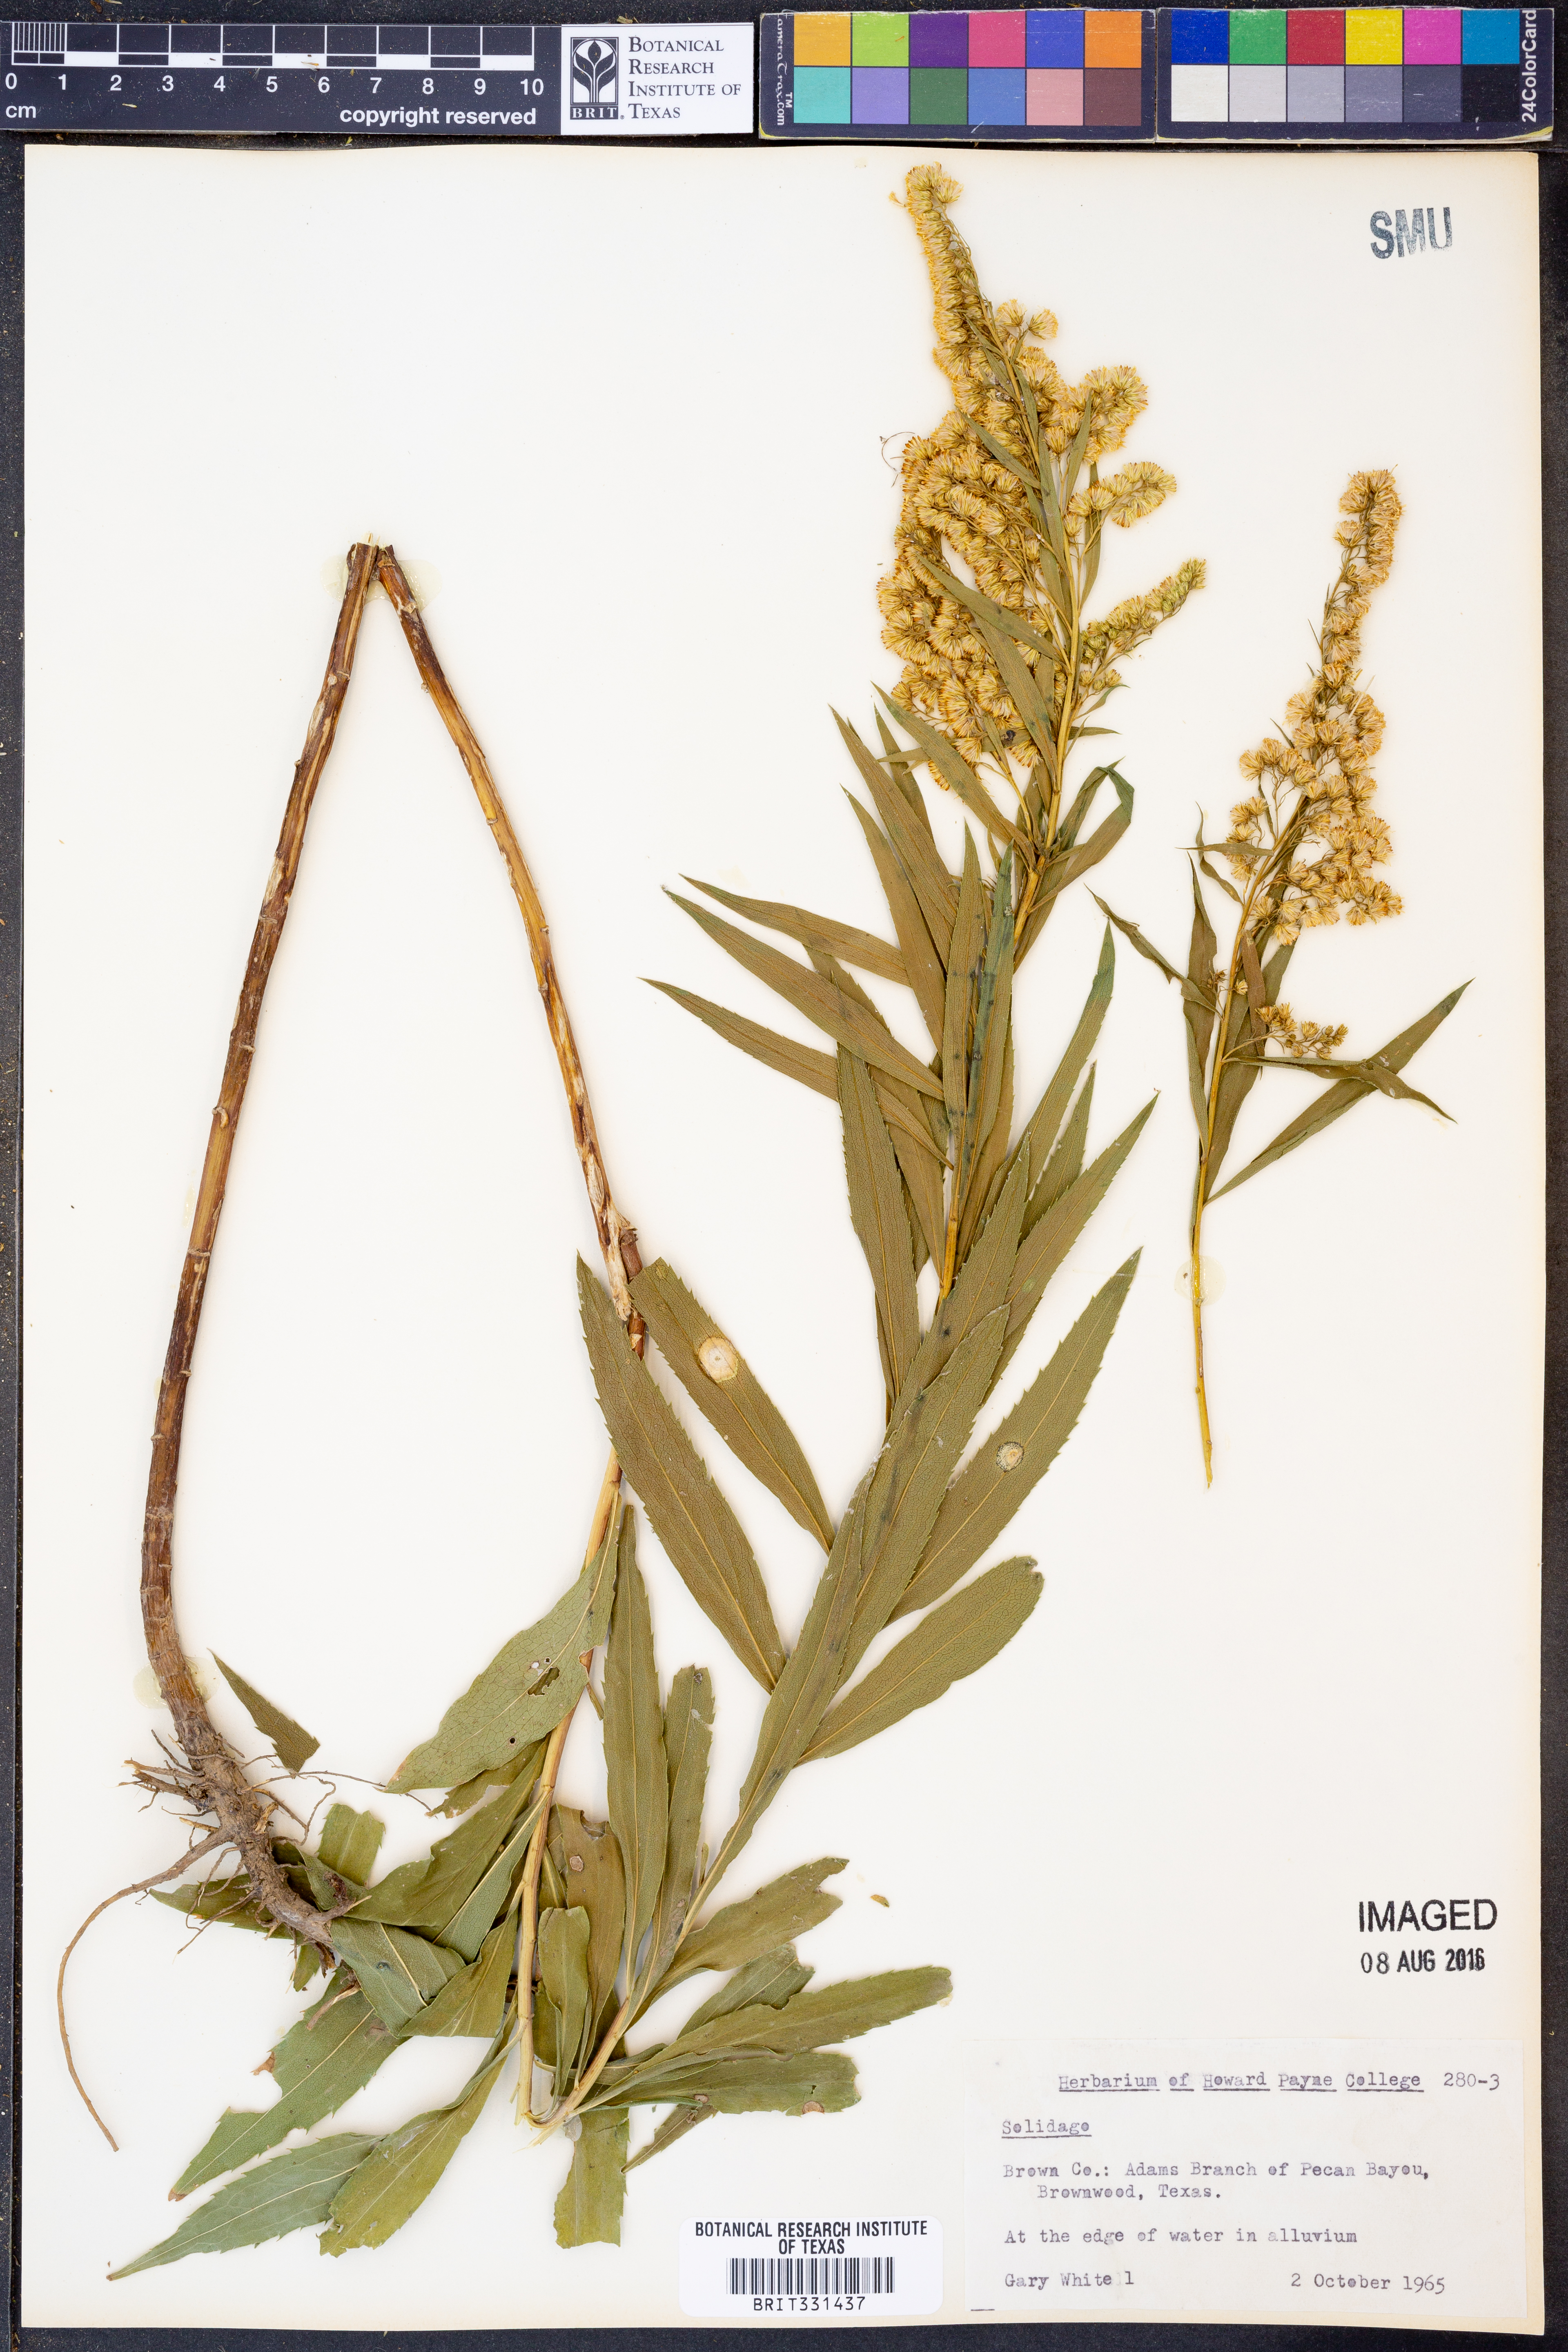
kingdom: Plantae
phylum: Tracheophyta
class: Magnoliopsida
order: Asterales
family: Asteraceae
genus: Solidago
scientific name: Solidago
